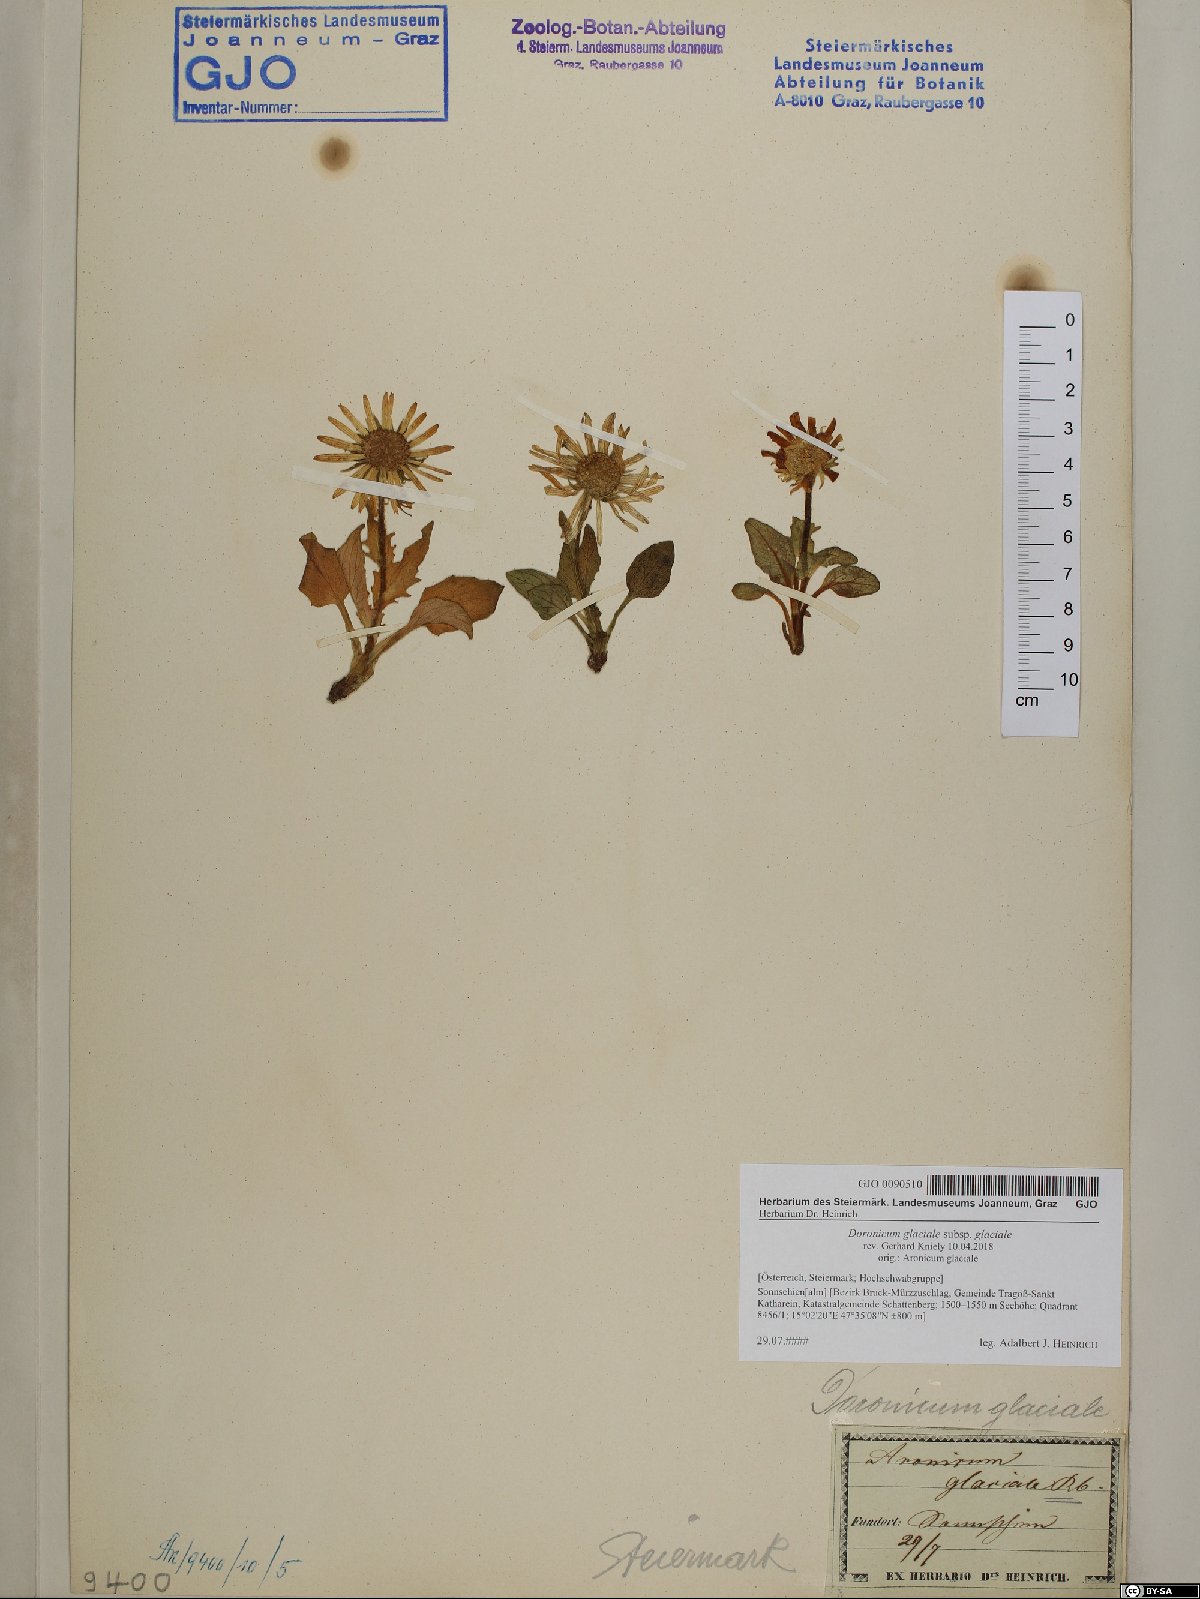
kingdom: Plantae
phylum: Tracheophyta
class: Magnoliopsida
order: Asterales
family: Asteraceae
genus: Doronicum
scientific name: Doronicum glaciale
